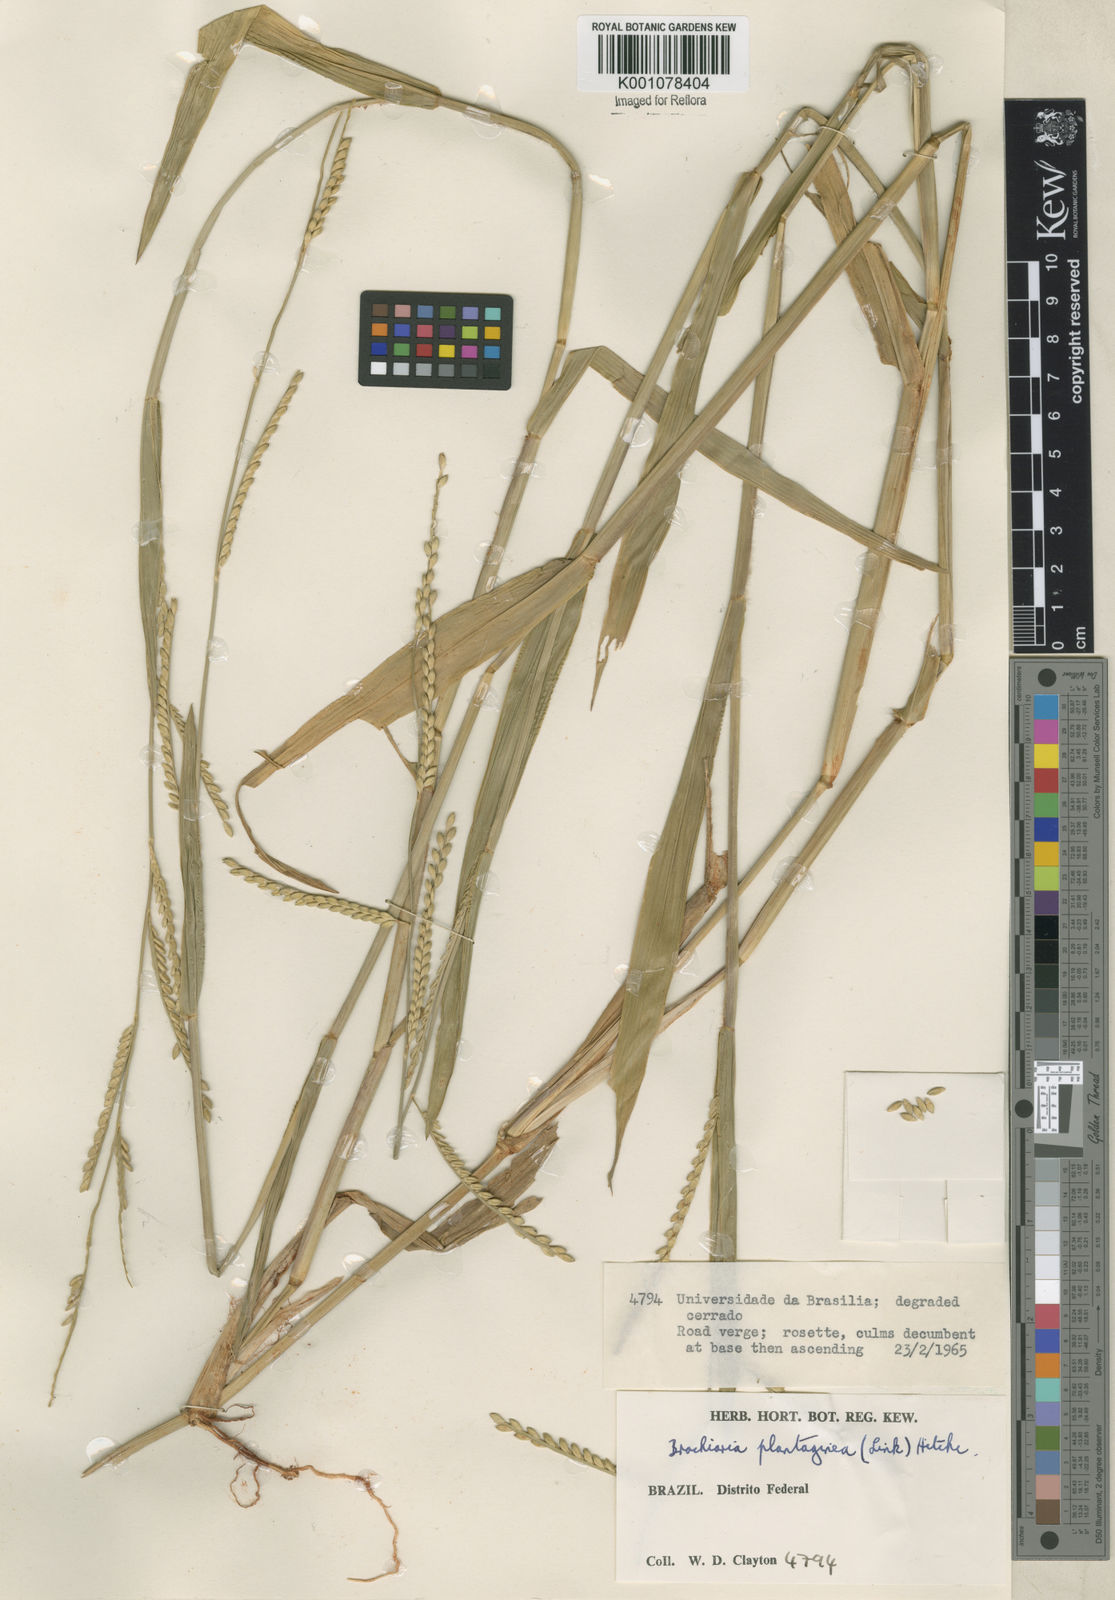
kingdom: Plantae
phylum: Tracheophyta
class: Liliopsida
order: Poales
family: Poaceae
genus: Urochloa
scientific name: Urochloa plantaginea
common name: Plantain signalgrass
